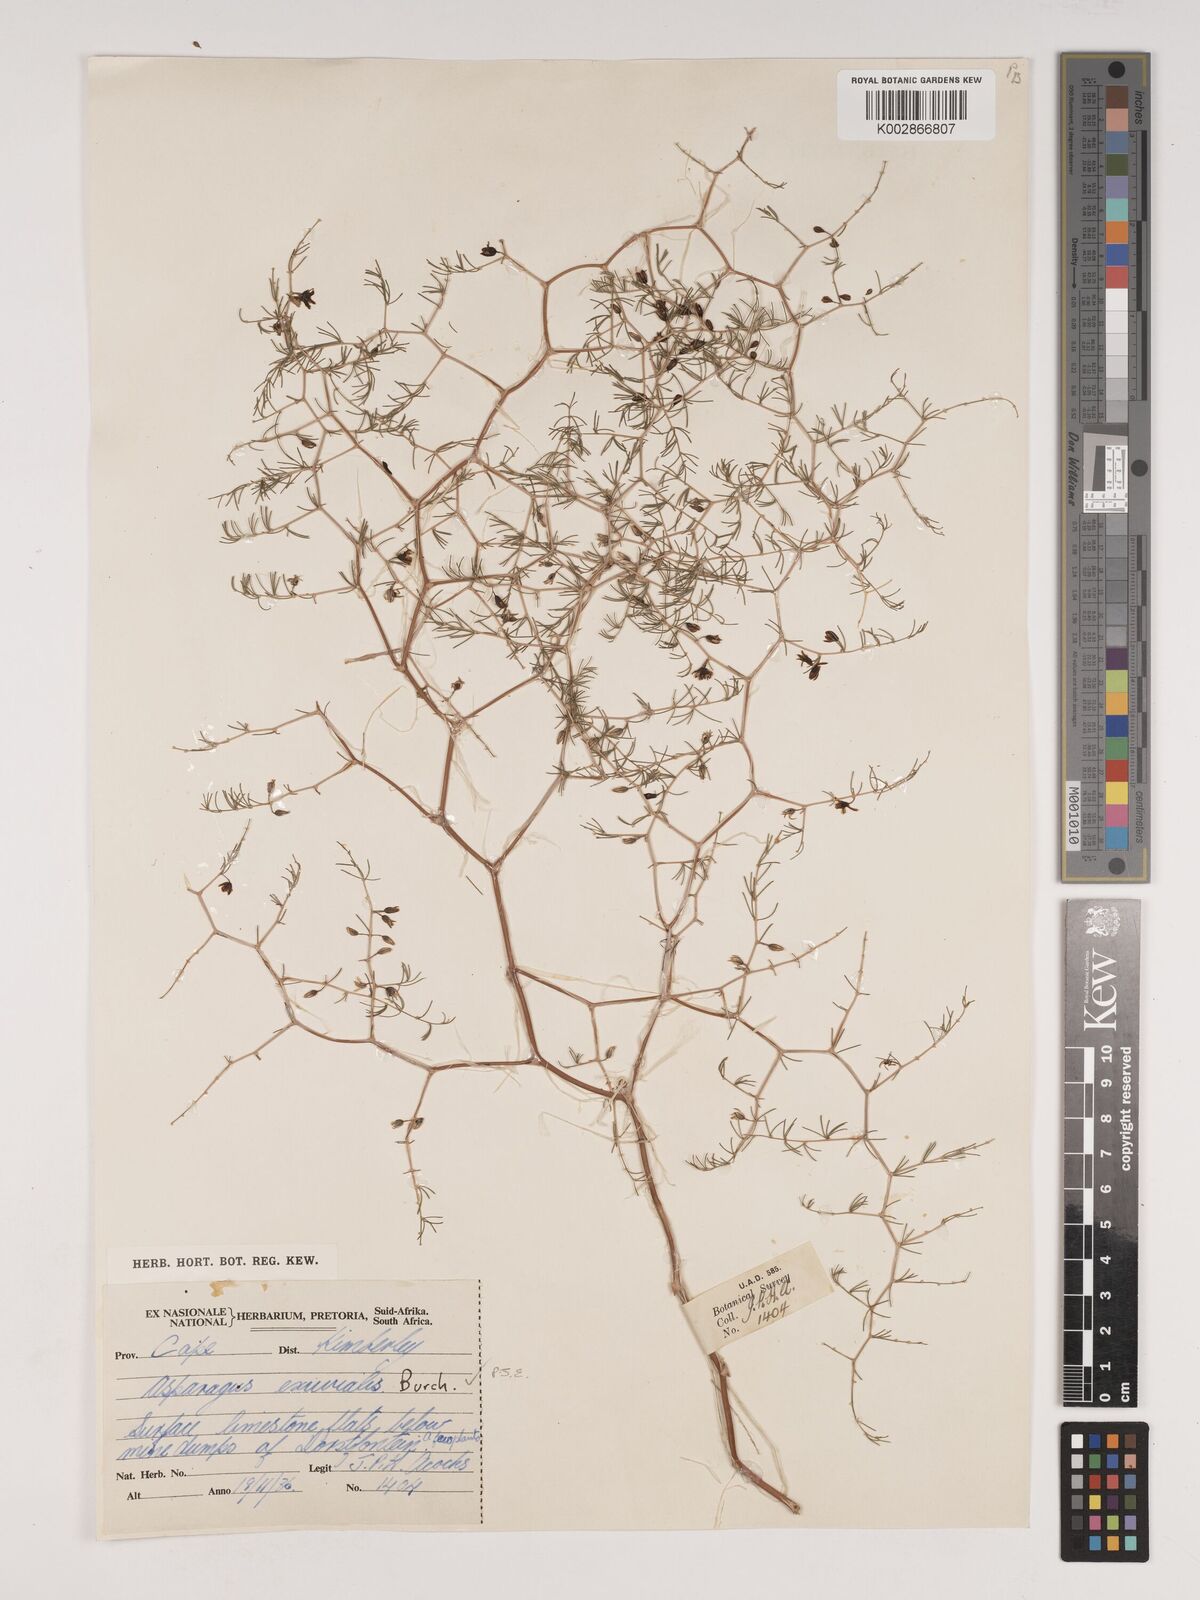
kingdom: Plantae
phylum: Tracheophyta
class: Liliopsida
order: Asparagales
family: Asparagaceae
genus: Asparagus
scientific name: Asparagus exuvialis
